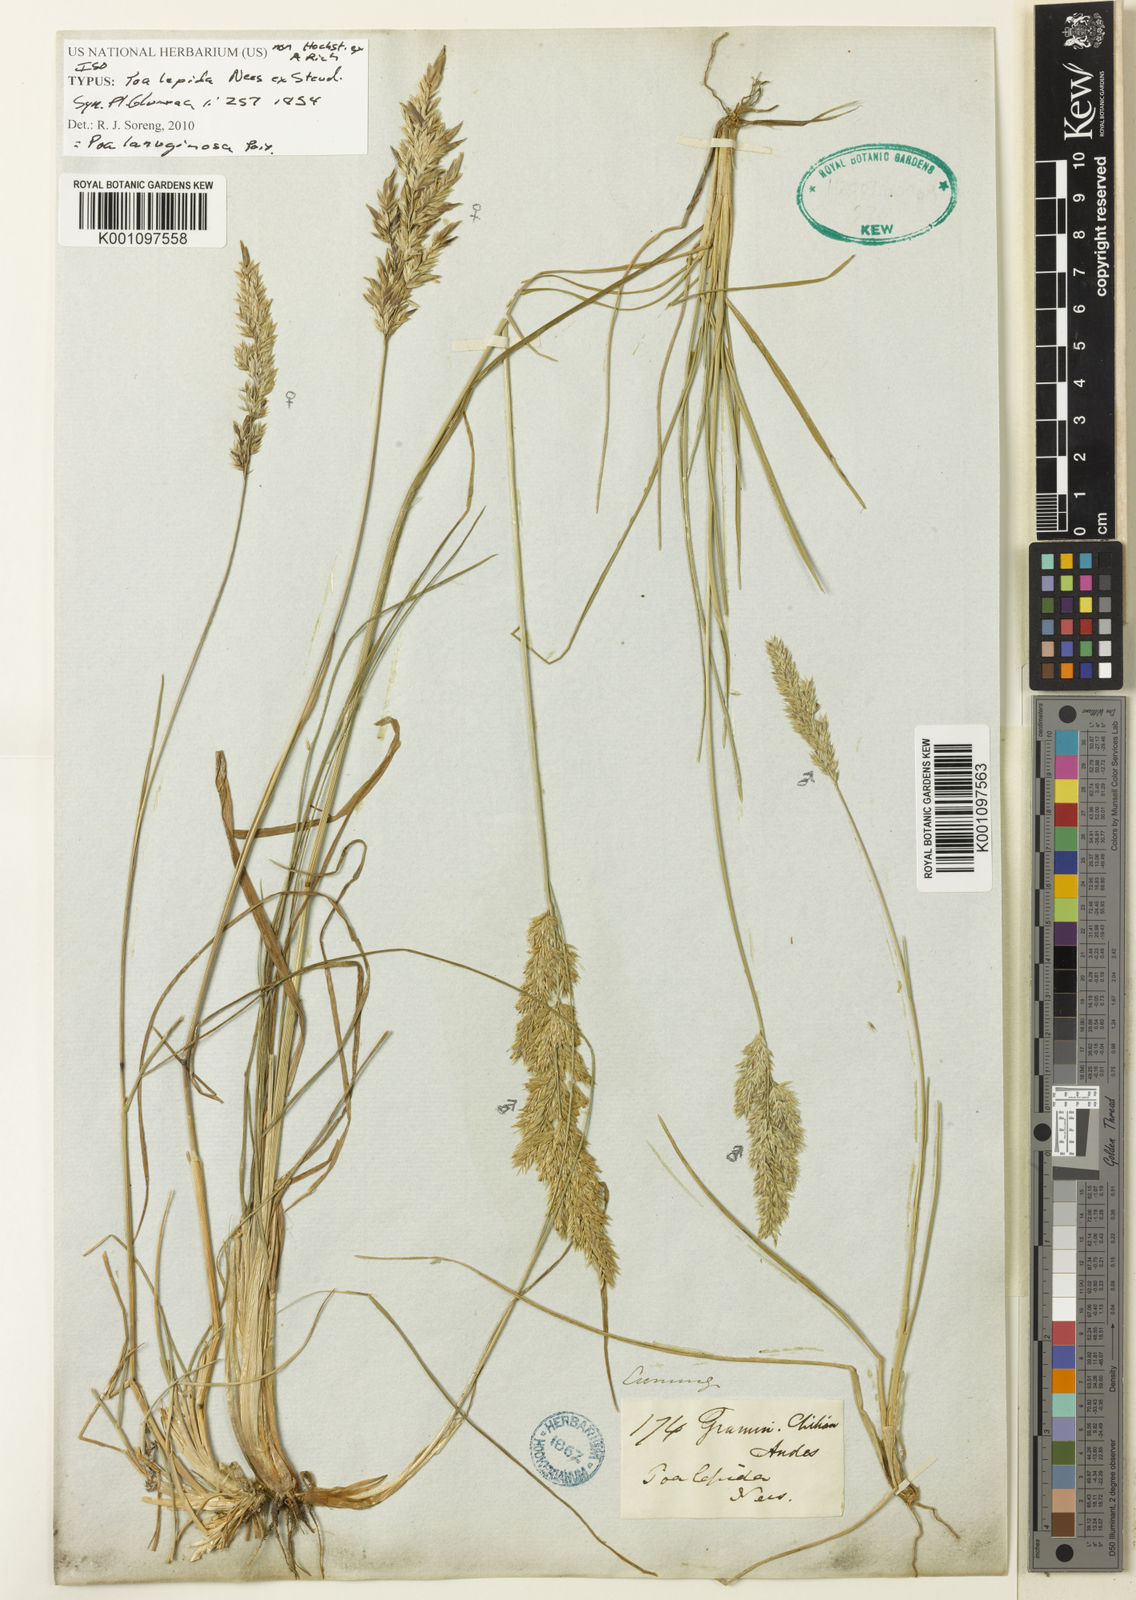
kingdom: Plantae
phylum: Tracheophyta
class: Liliopsida
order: Poales
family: Poaceae
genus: Poa
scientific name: Poa denudata
